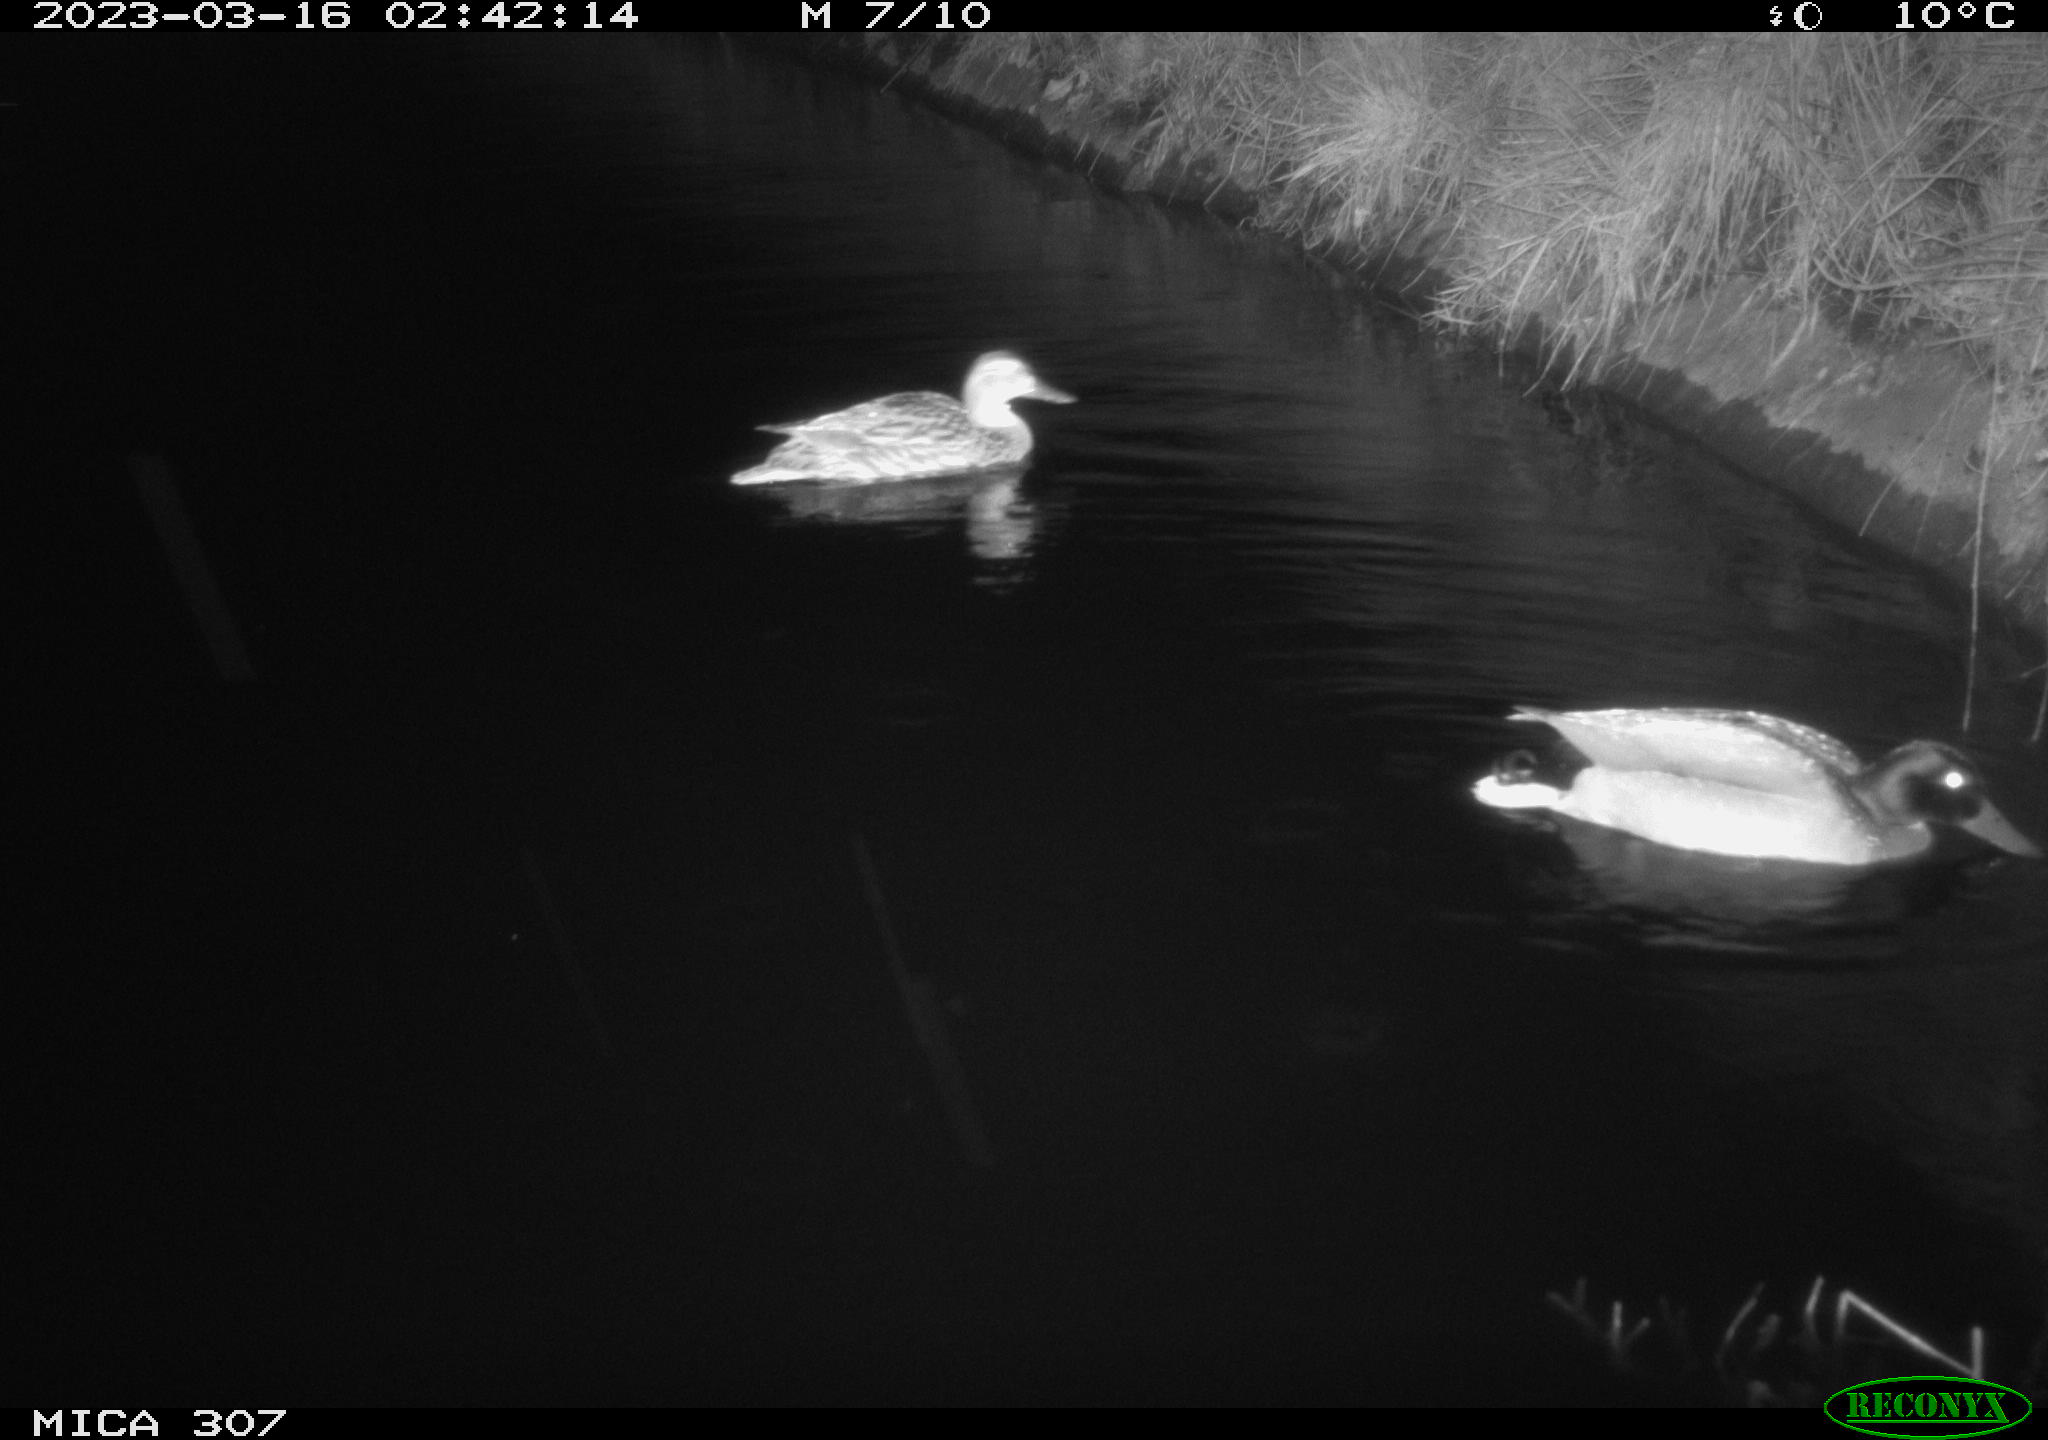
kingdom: Animalia
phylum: Chordata
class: Aves
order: Anseriformes
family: Anatidae
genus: Anas
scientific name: Anas
